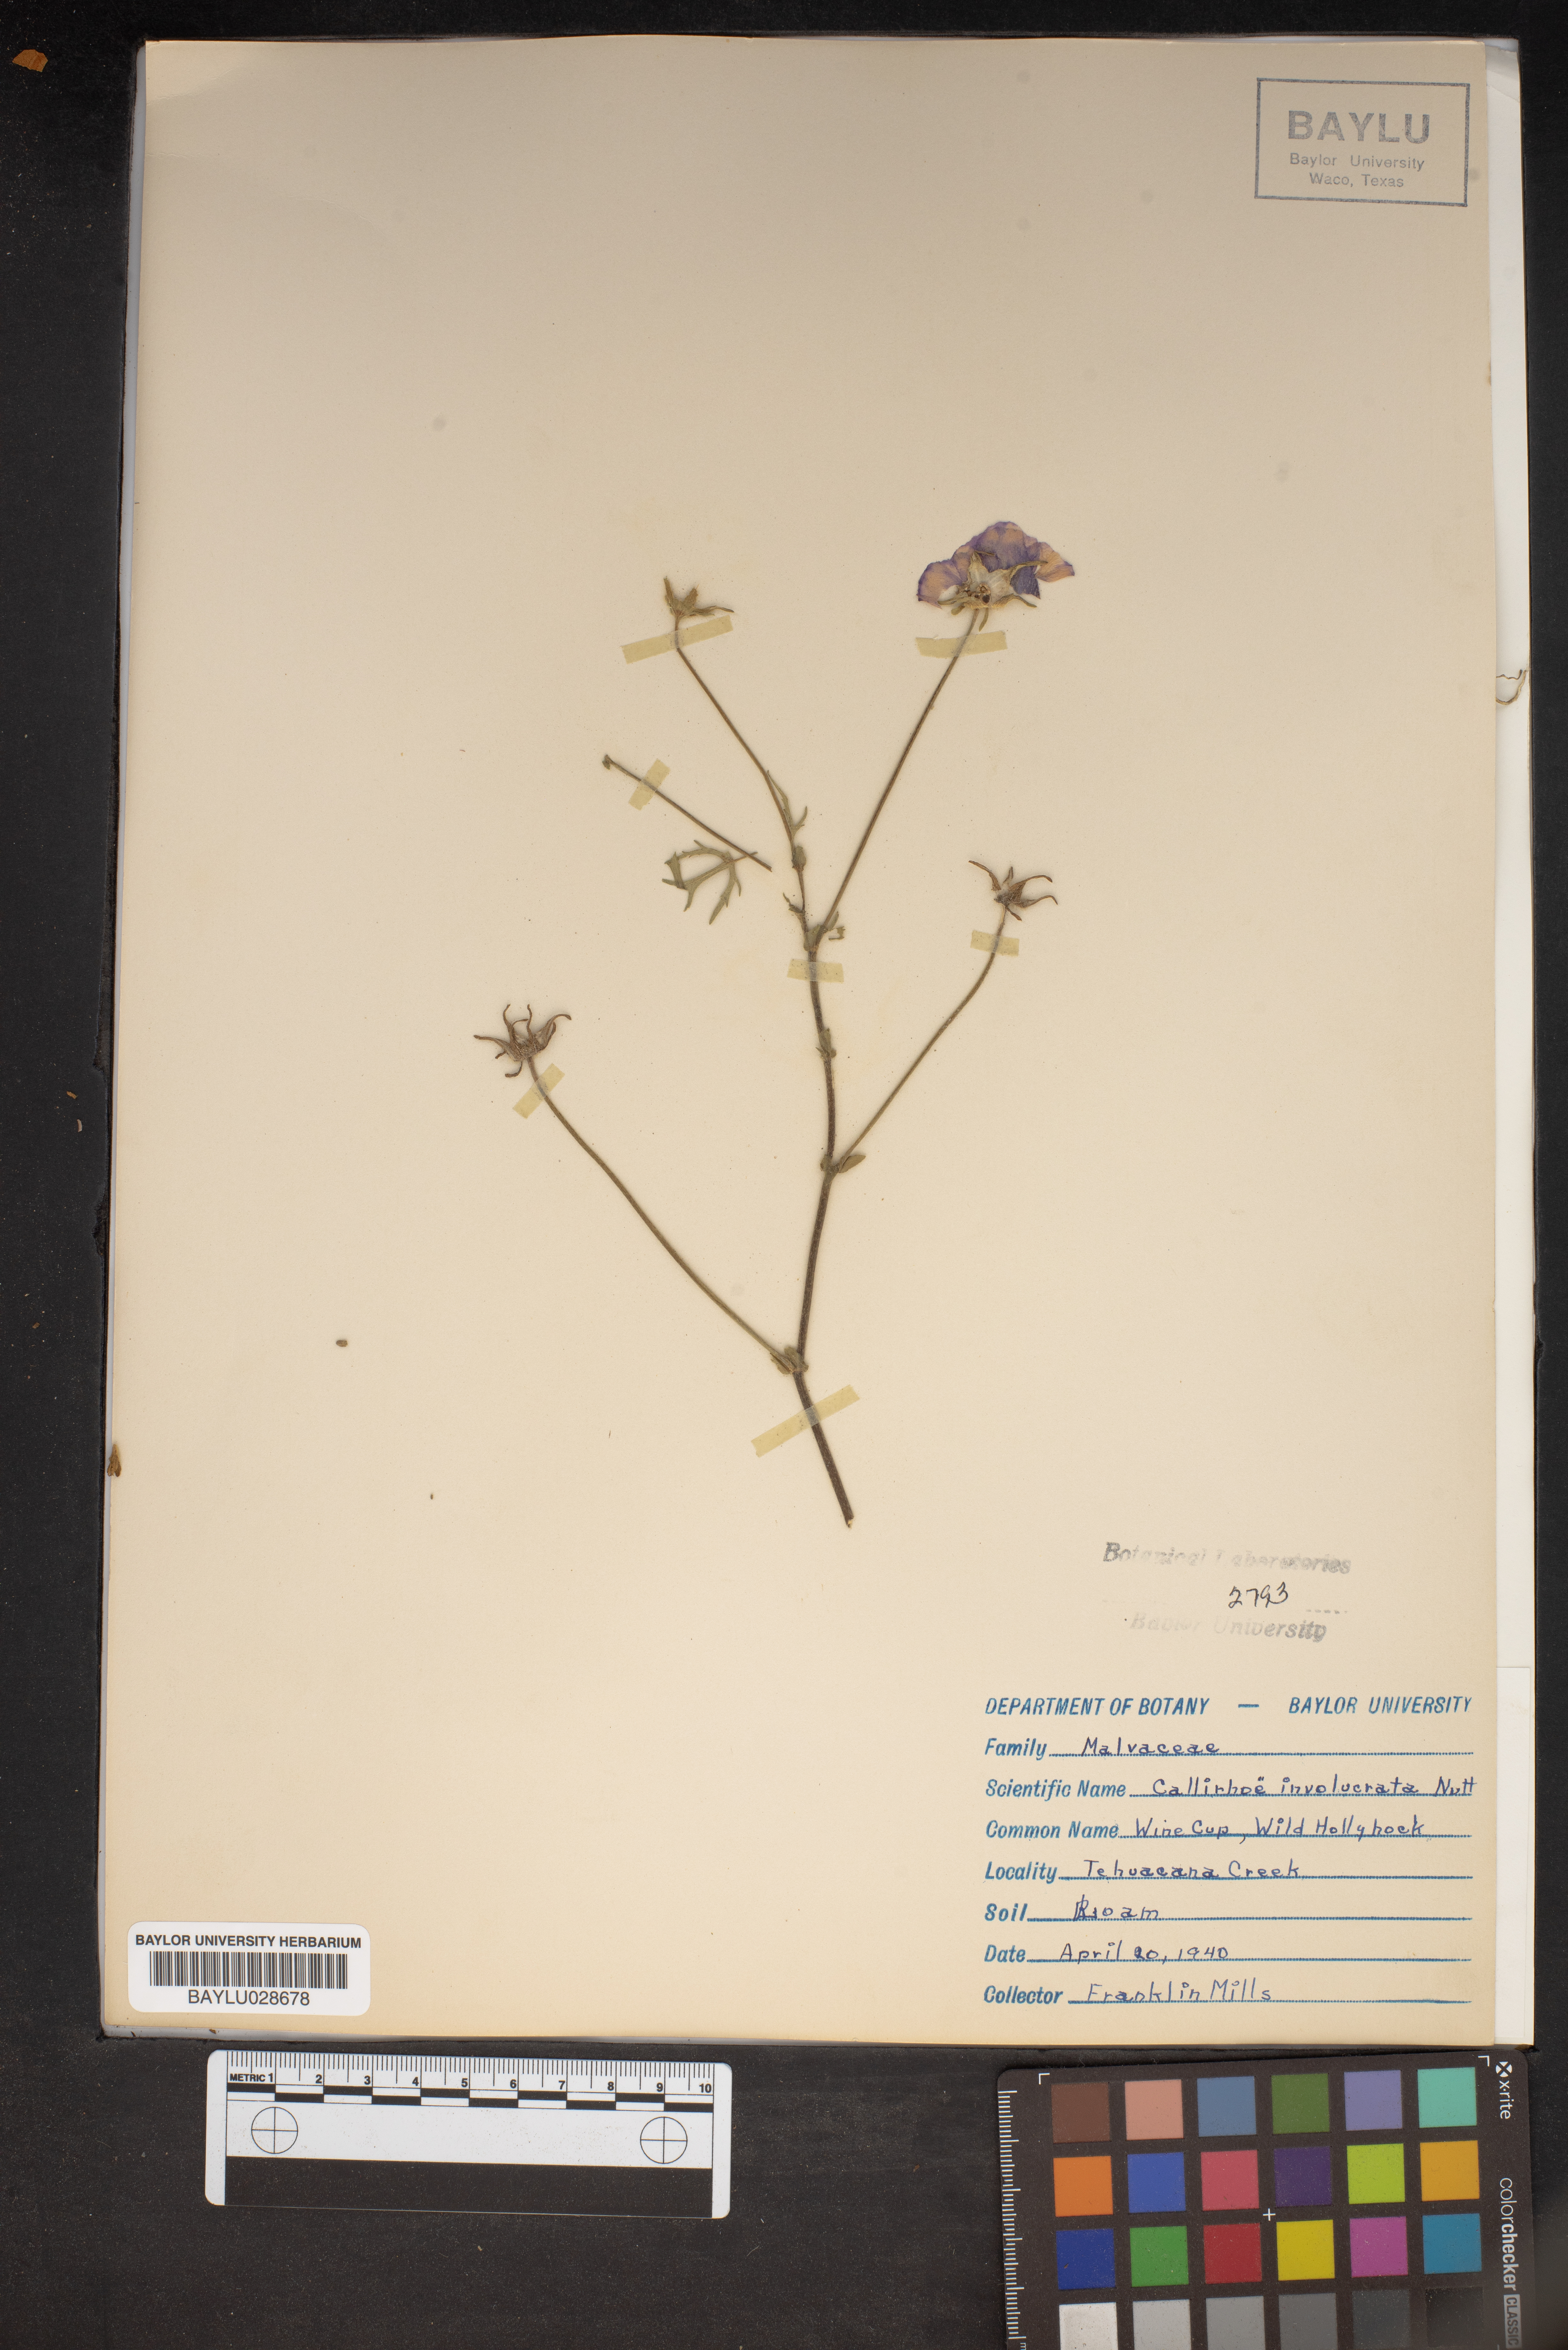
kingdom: Plantae
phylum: Tracheophyta
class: Magnoliopsida
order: Malvales
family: Malvaceae
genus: Callirhoe
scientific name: Callirhoe involucrata
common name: Purple poppy-mallow
